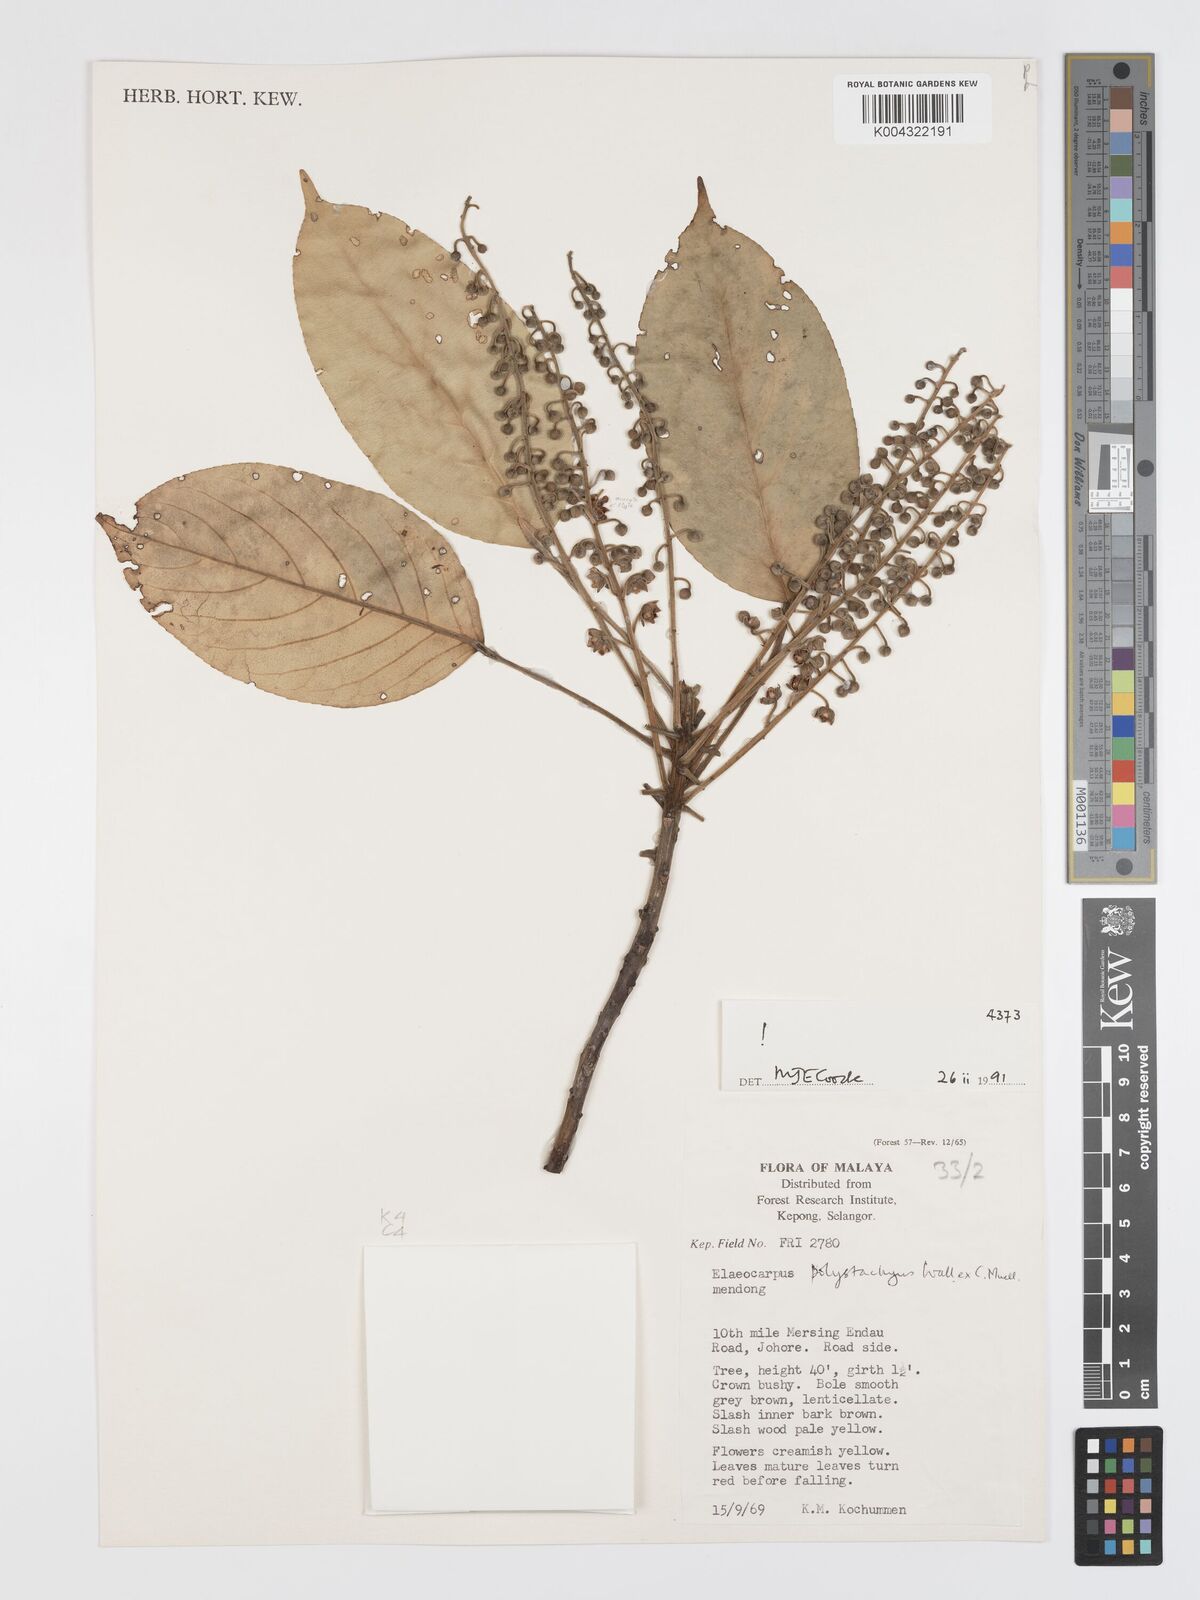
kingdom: Plantae
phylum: Tracheophyta
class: Magnoliopsida
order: Oxalidales
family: Elaeocarpaceae
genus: Elaeocarpus
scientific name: Elaeocarpus polystachyus
